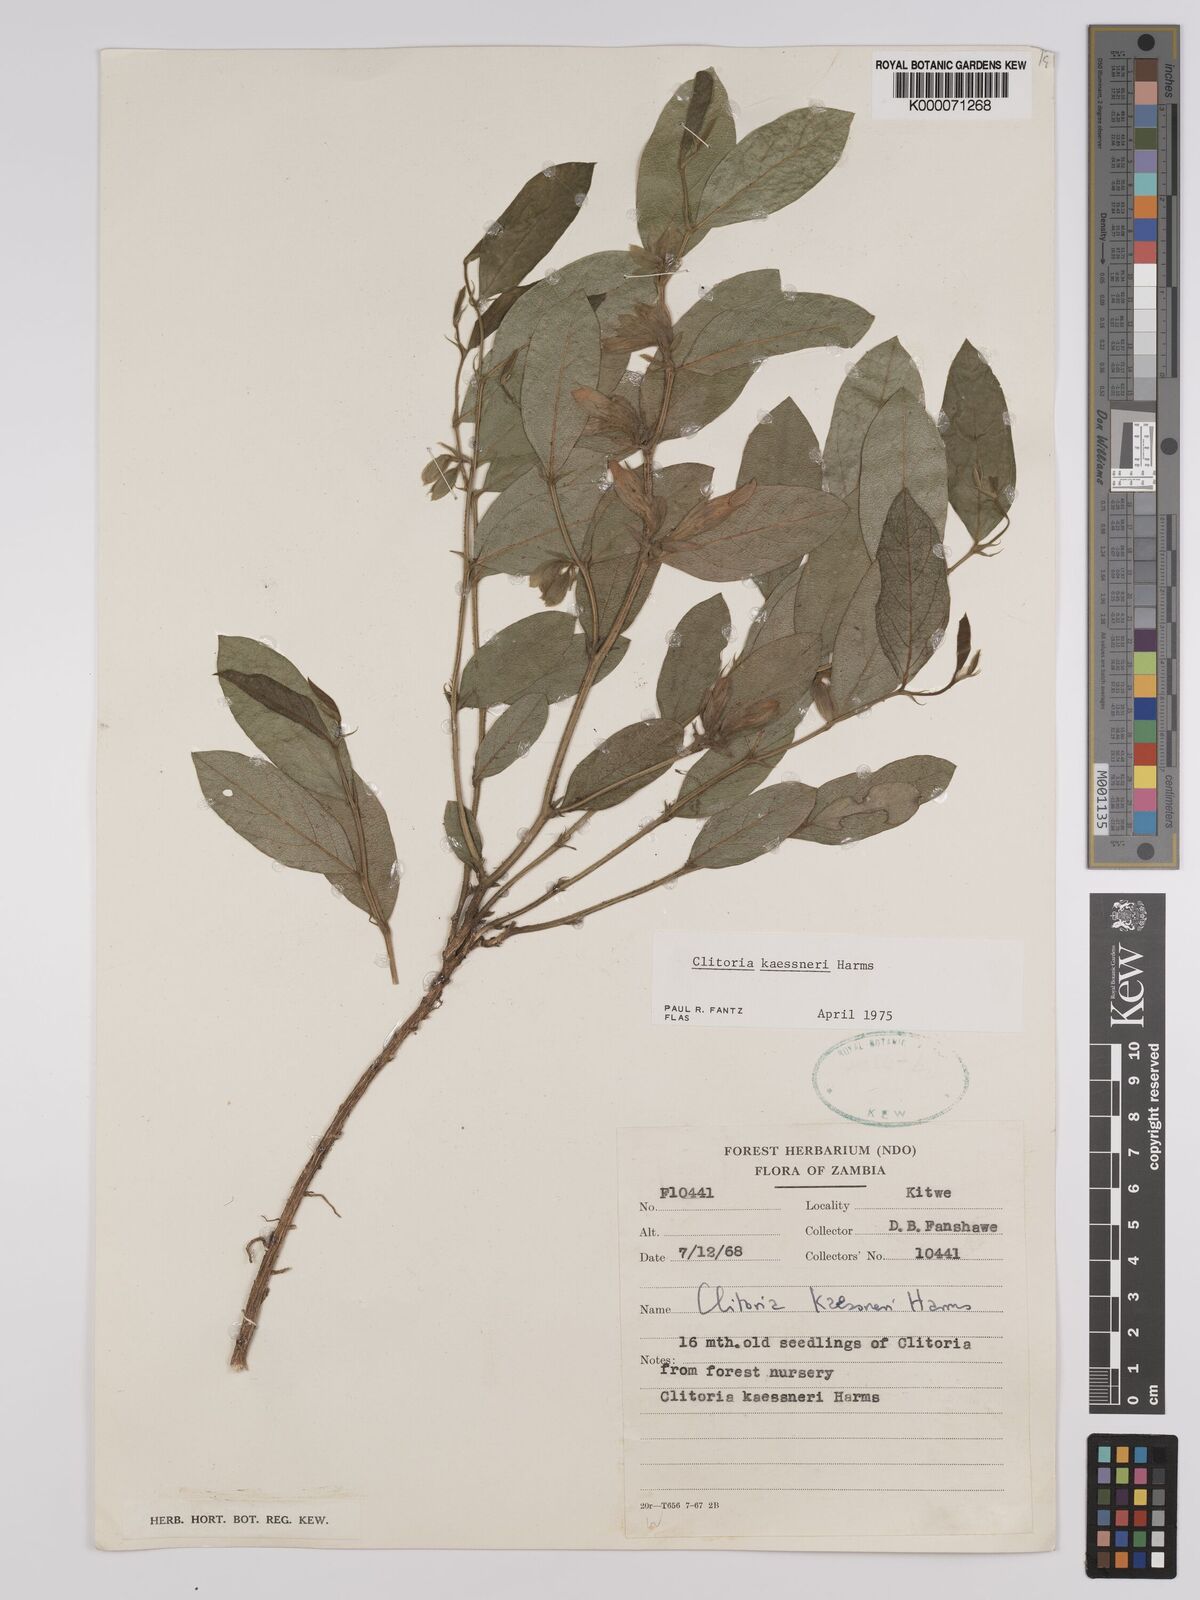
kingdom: Plantae
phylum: Tracheophyta
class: Magnoliopsida
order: Fabales
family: Fabaceae
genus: Clitoria
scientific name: Clitoria kaessneri
